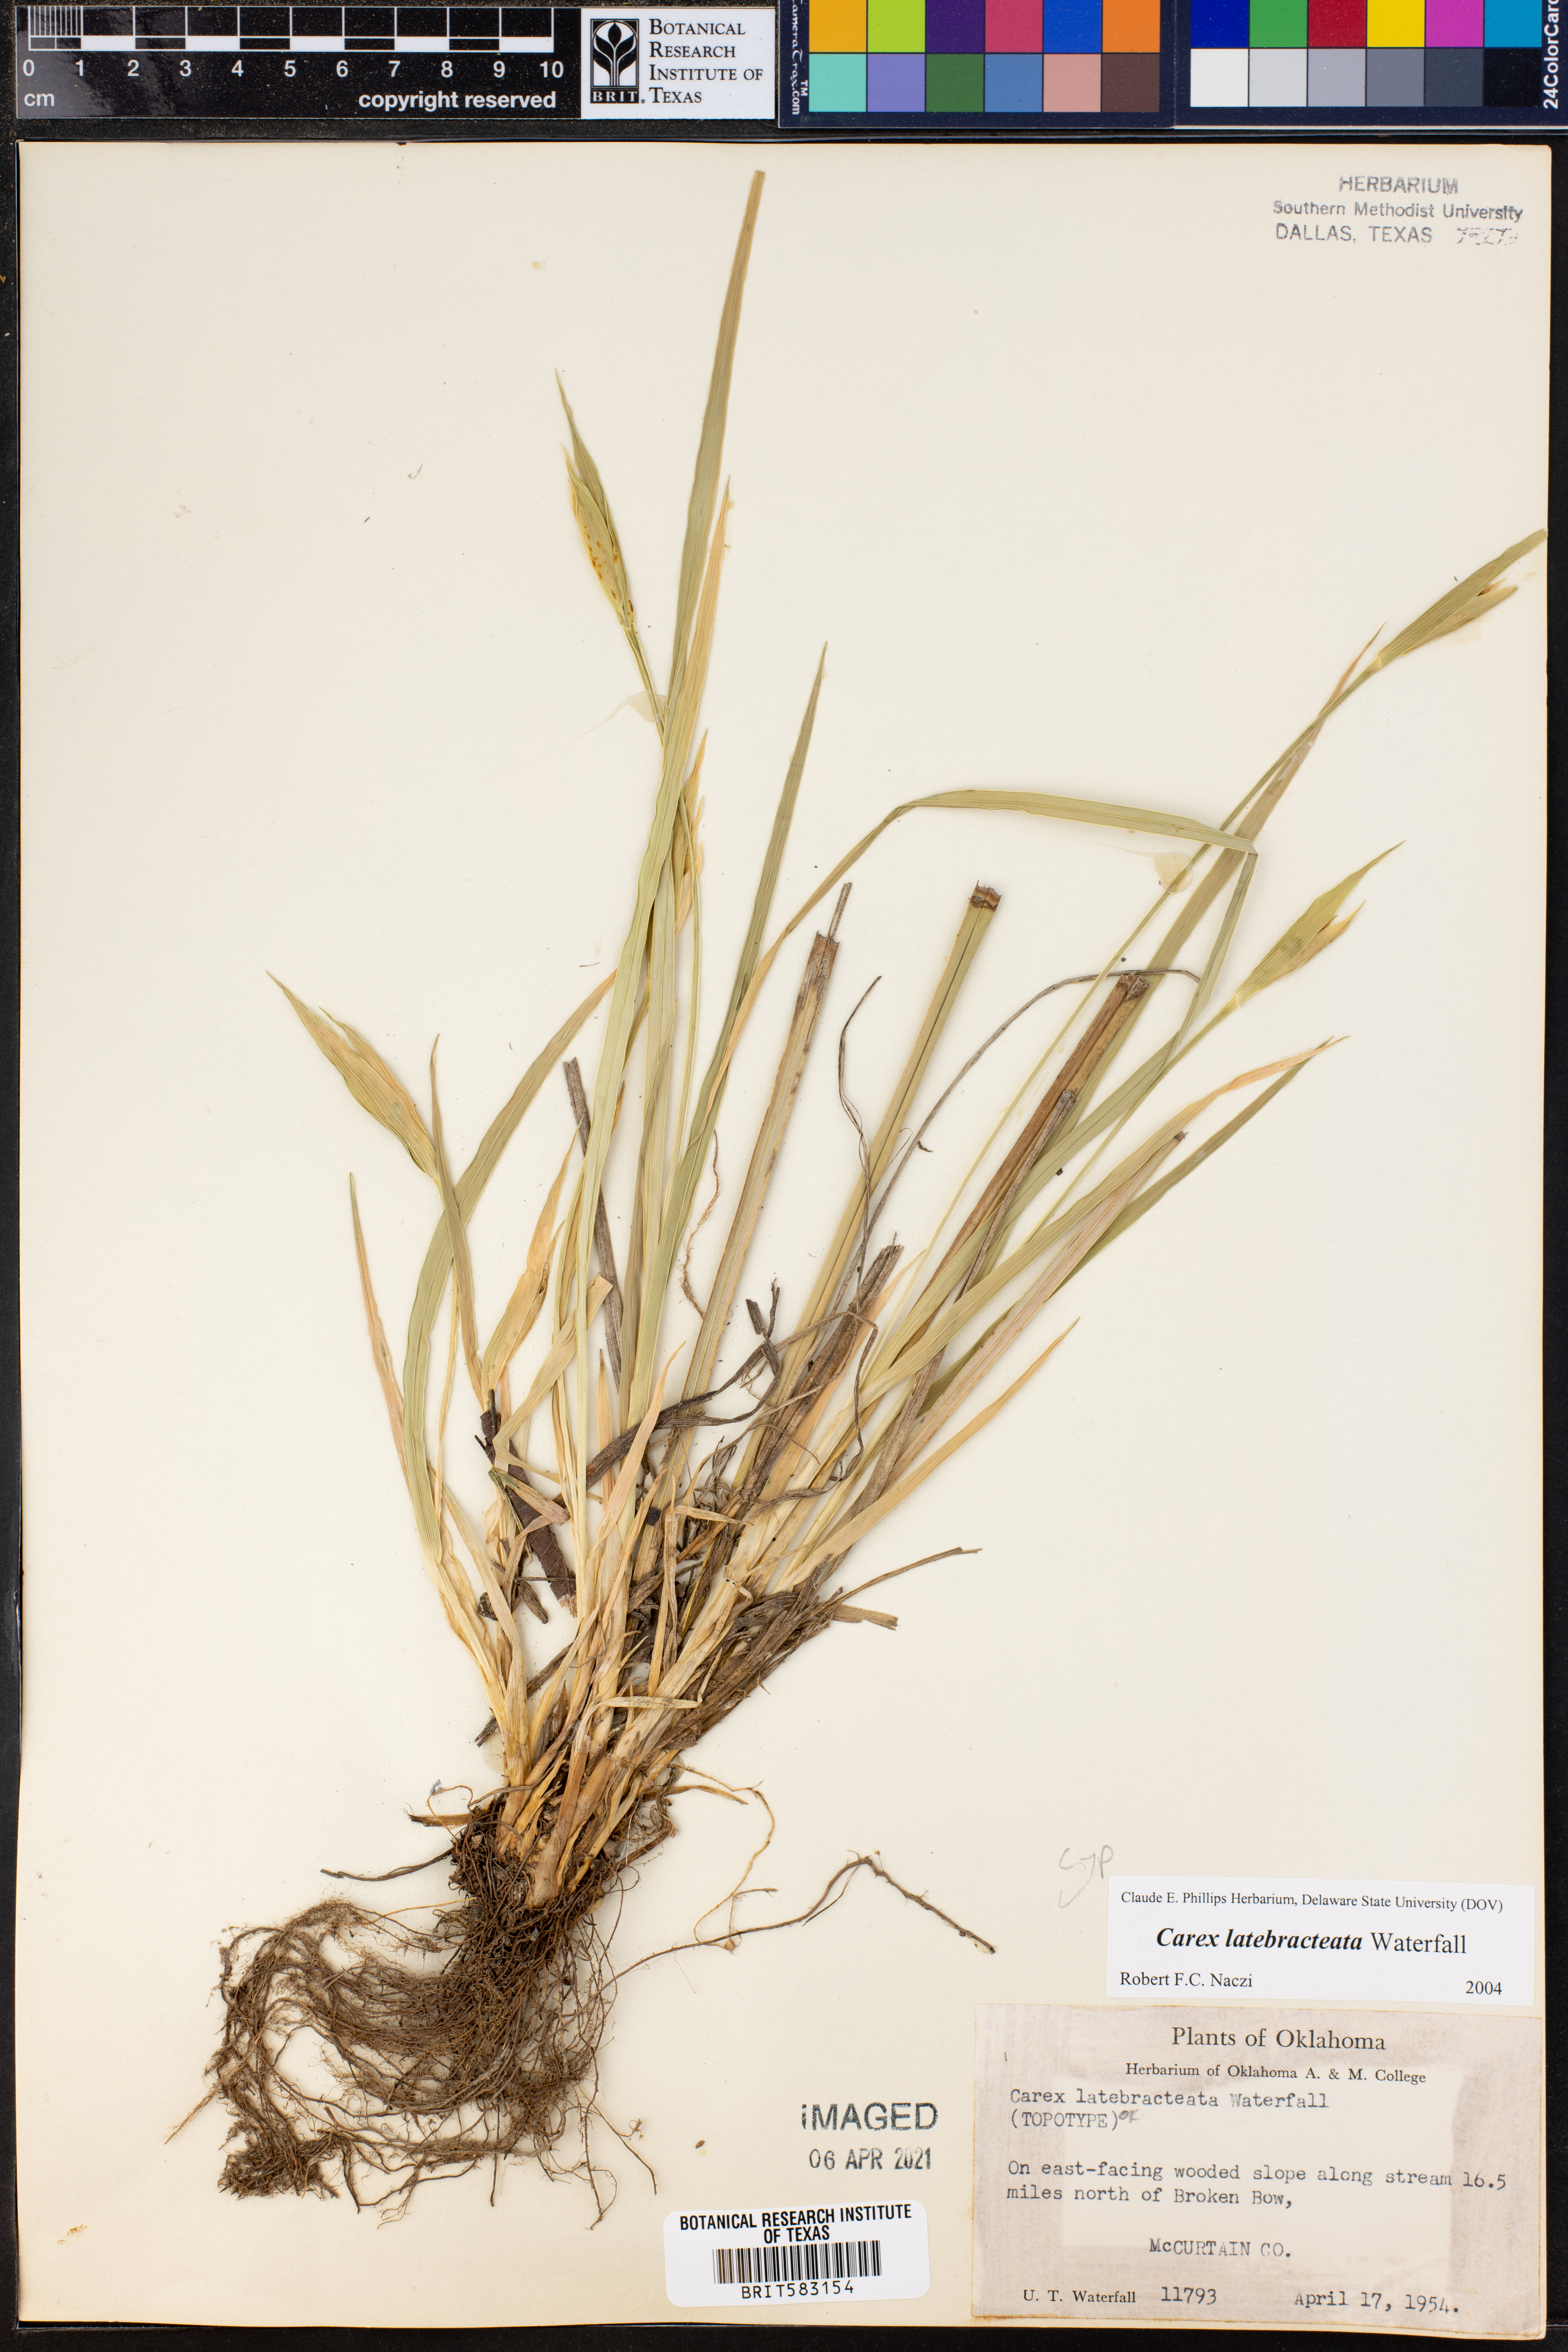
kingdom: Plantae
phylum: Tracheophyta
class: Liliopsida
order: Poales
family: Cyperaceae
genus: Carex
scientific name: Carex latebracteata
